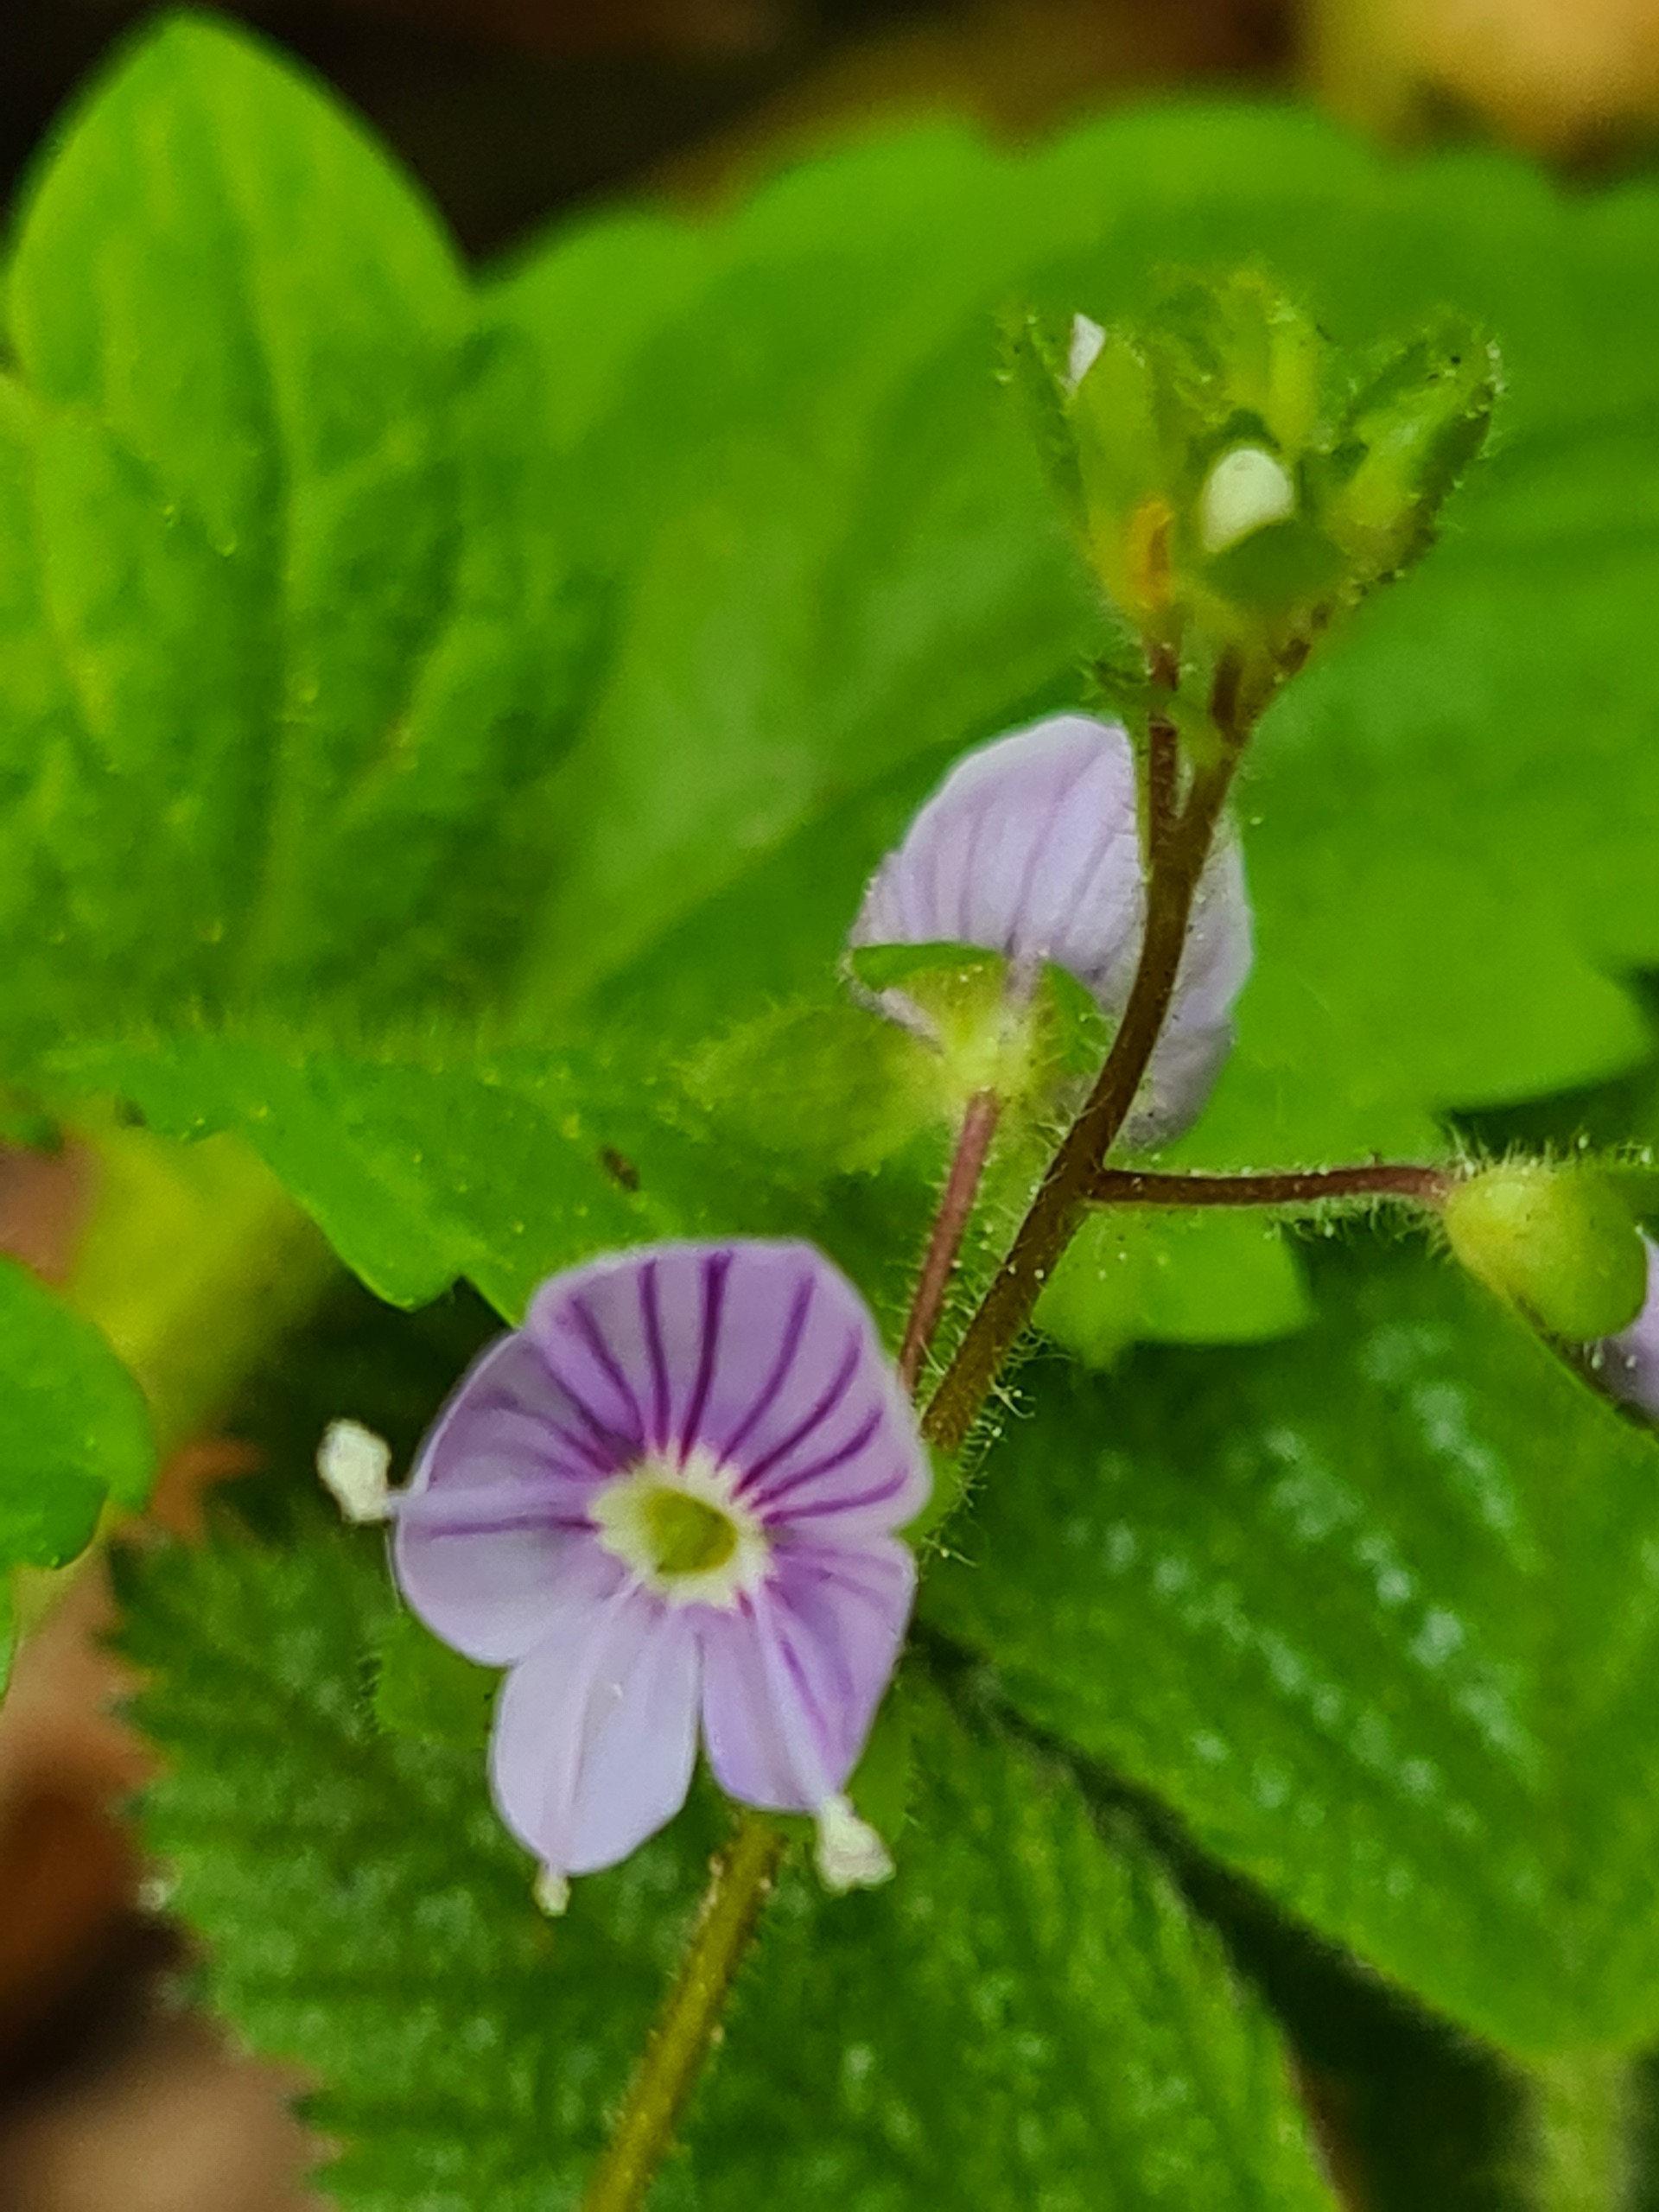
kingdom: Plantae
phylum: Tracheophyta
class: Magnoliopsida
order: Lamiales
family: Plantaginaceae
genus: Veronica
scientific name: Veronica montana
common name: Bjerg-ærenpris
